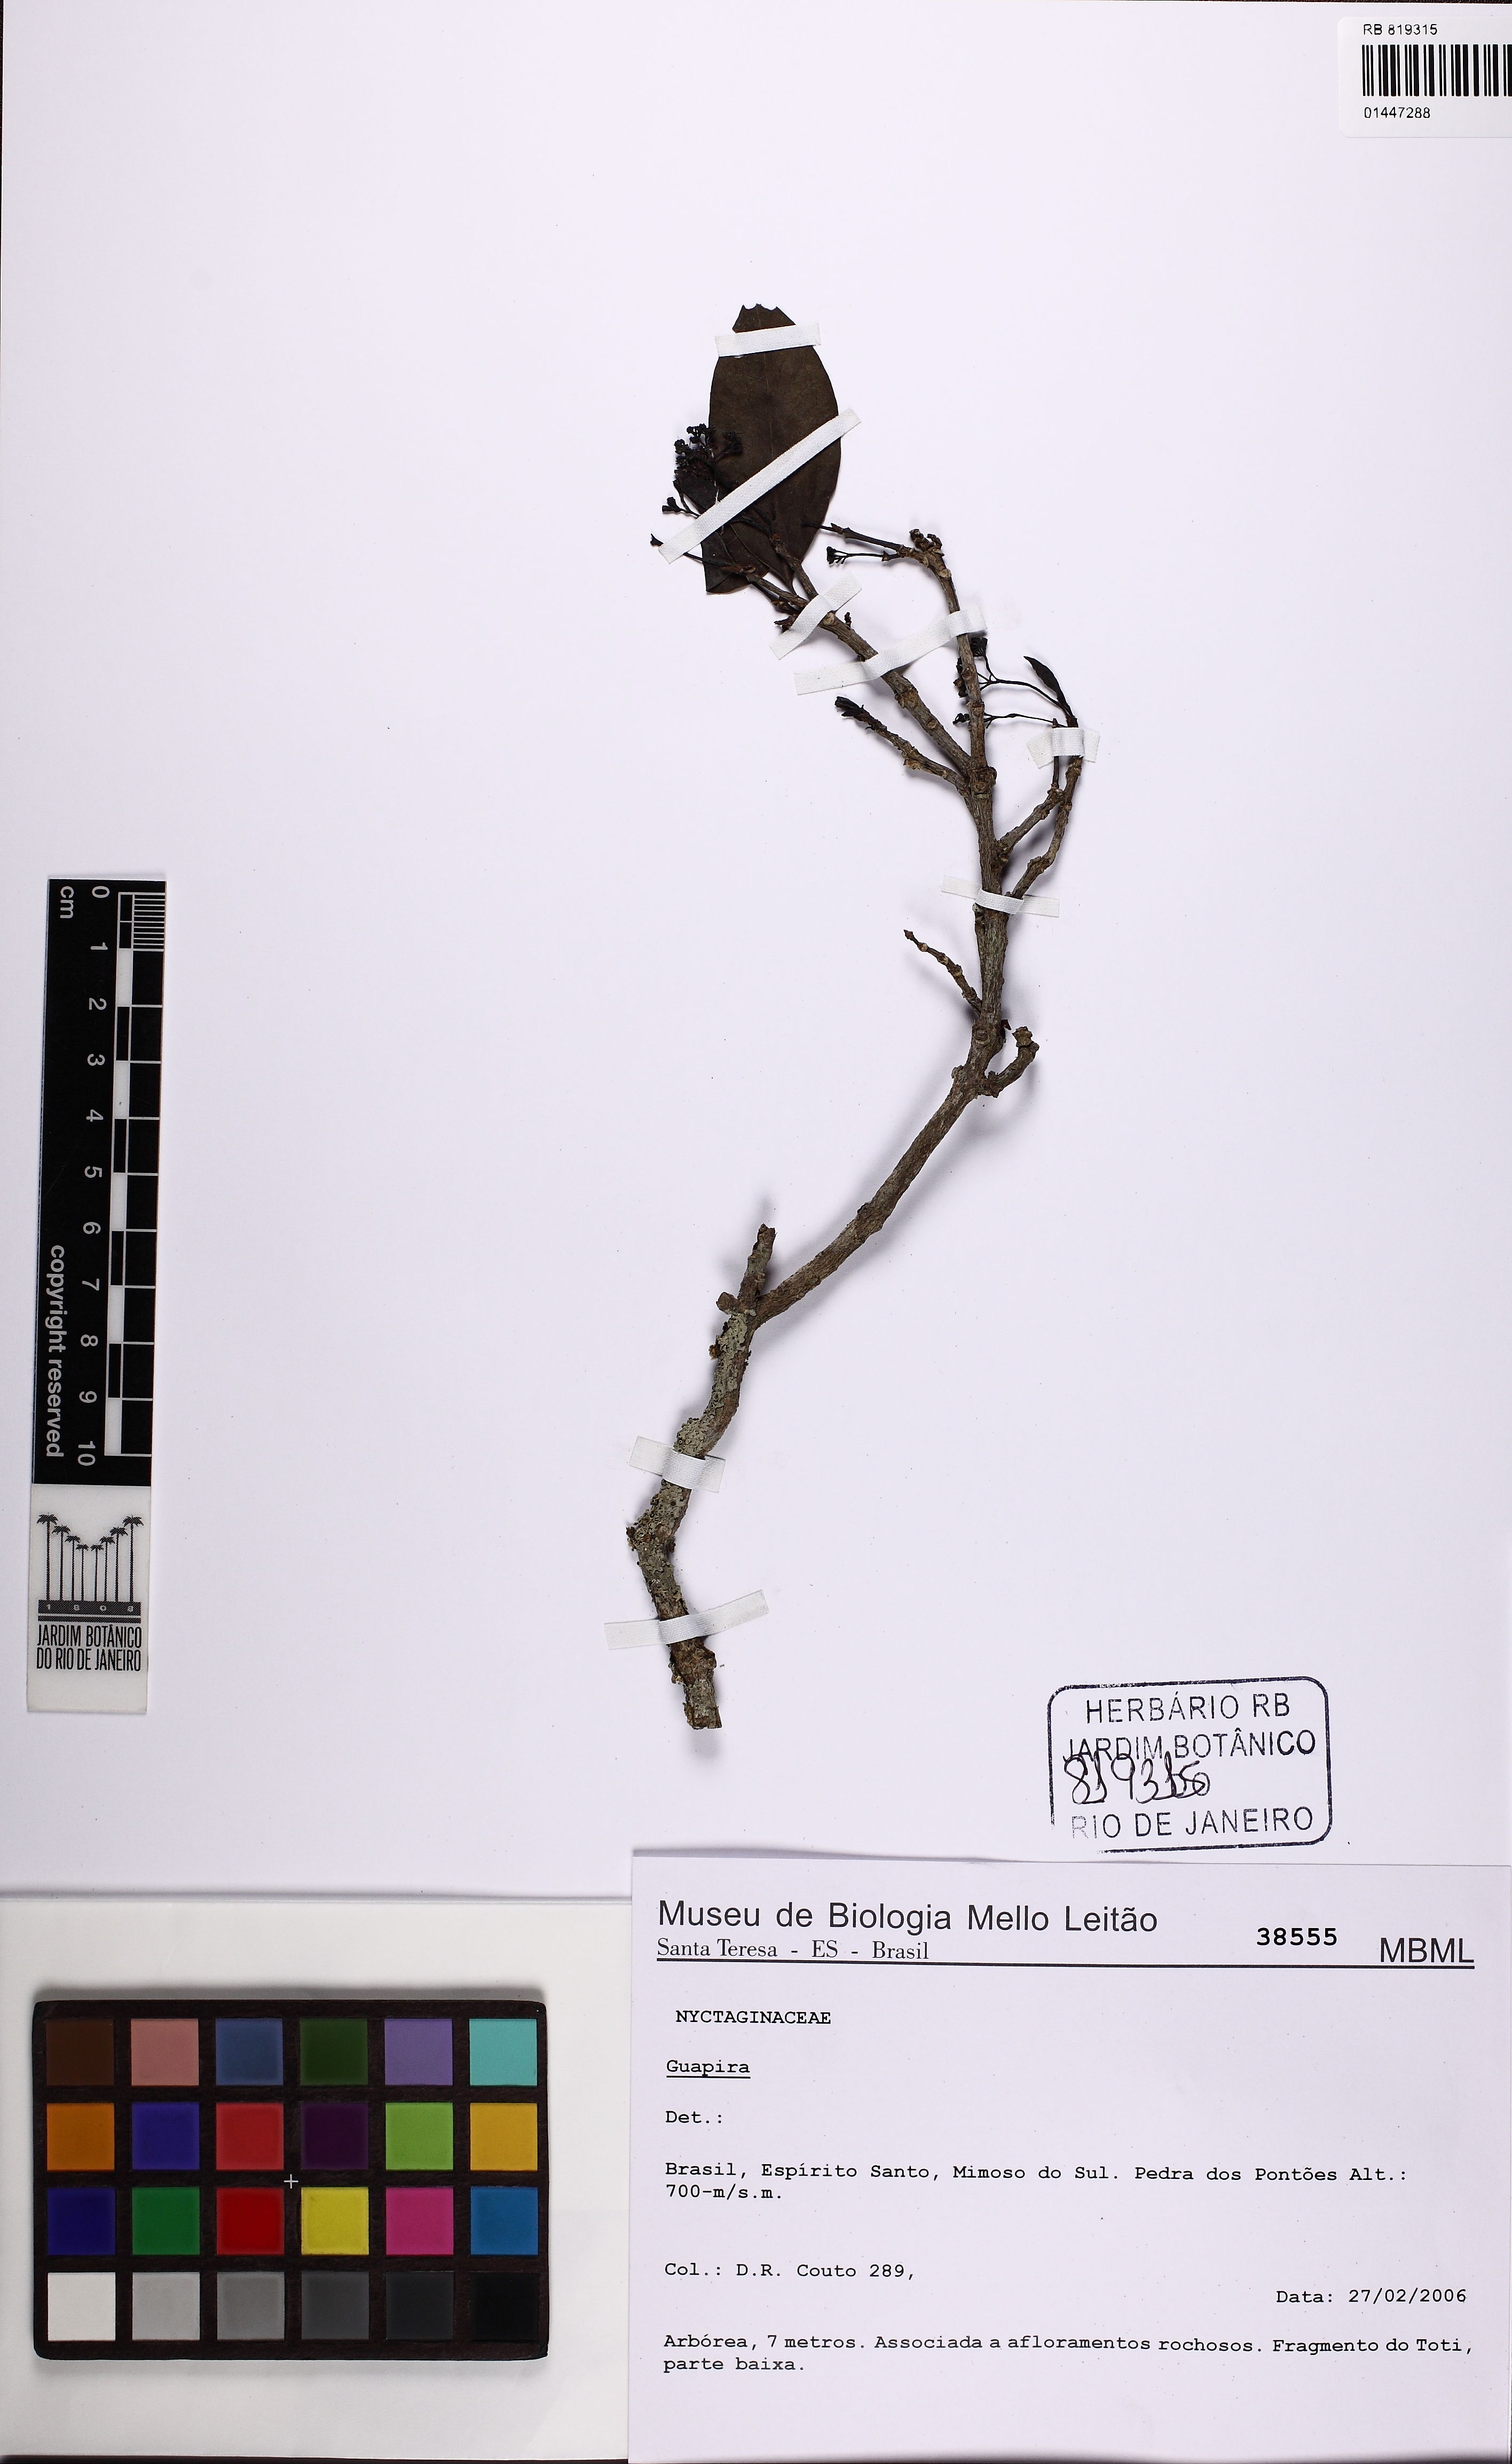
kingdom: Plantae
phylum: Tracheophyta
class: Magnoliopsida
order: Caryophyllales
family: Nyctaginaceae
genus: Guapira
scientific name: Guapira
